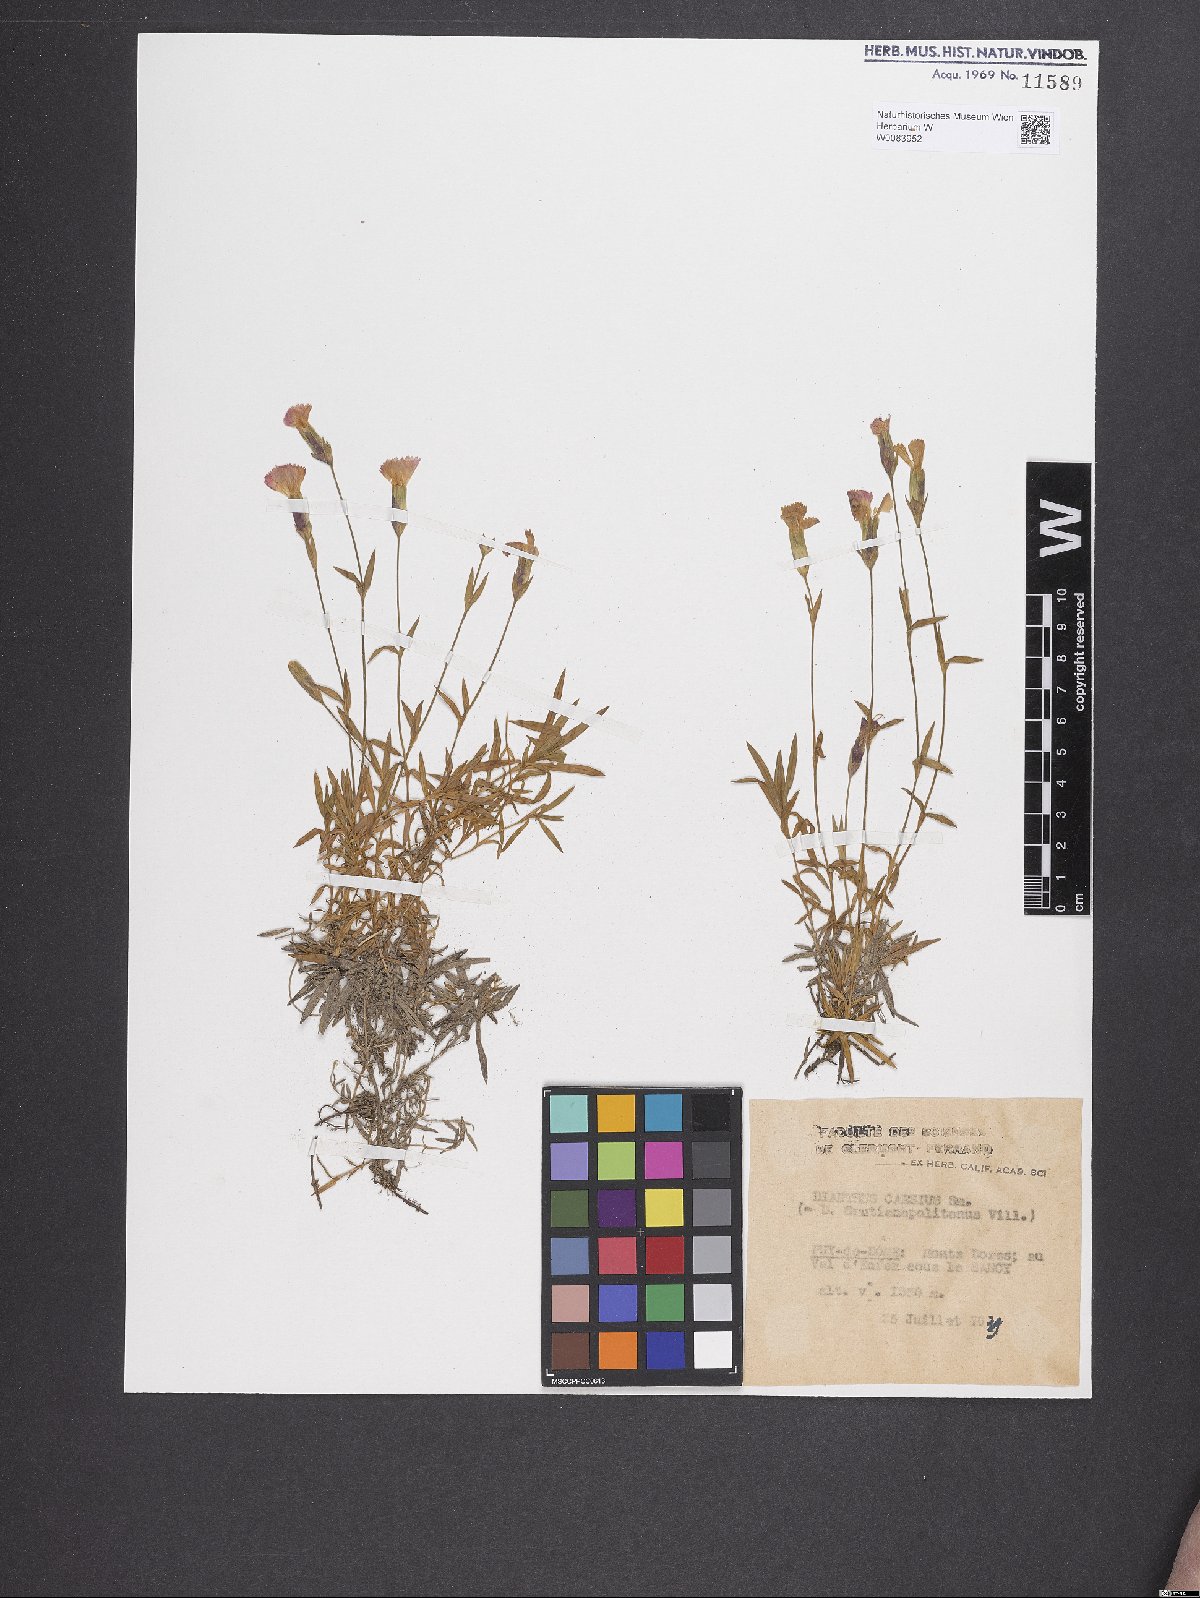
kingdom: Plantae
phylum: Tracheophyta
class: Magnoliopsida
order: Caryophyllales
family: Caryophyllaceae
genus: Dianthus
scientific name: Dianthus gratianopolitanus
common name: Cheddar pink
